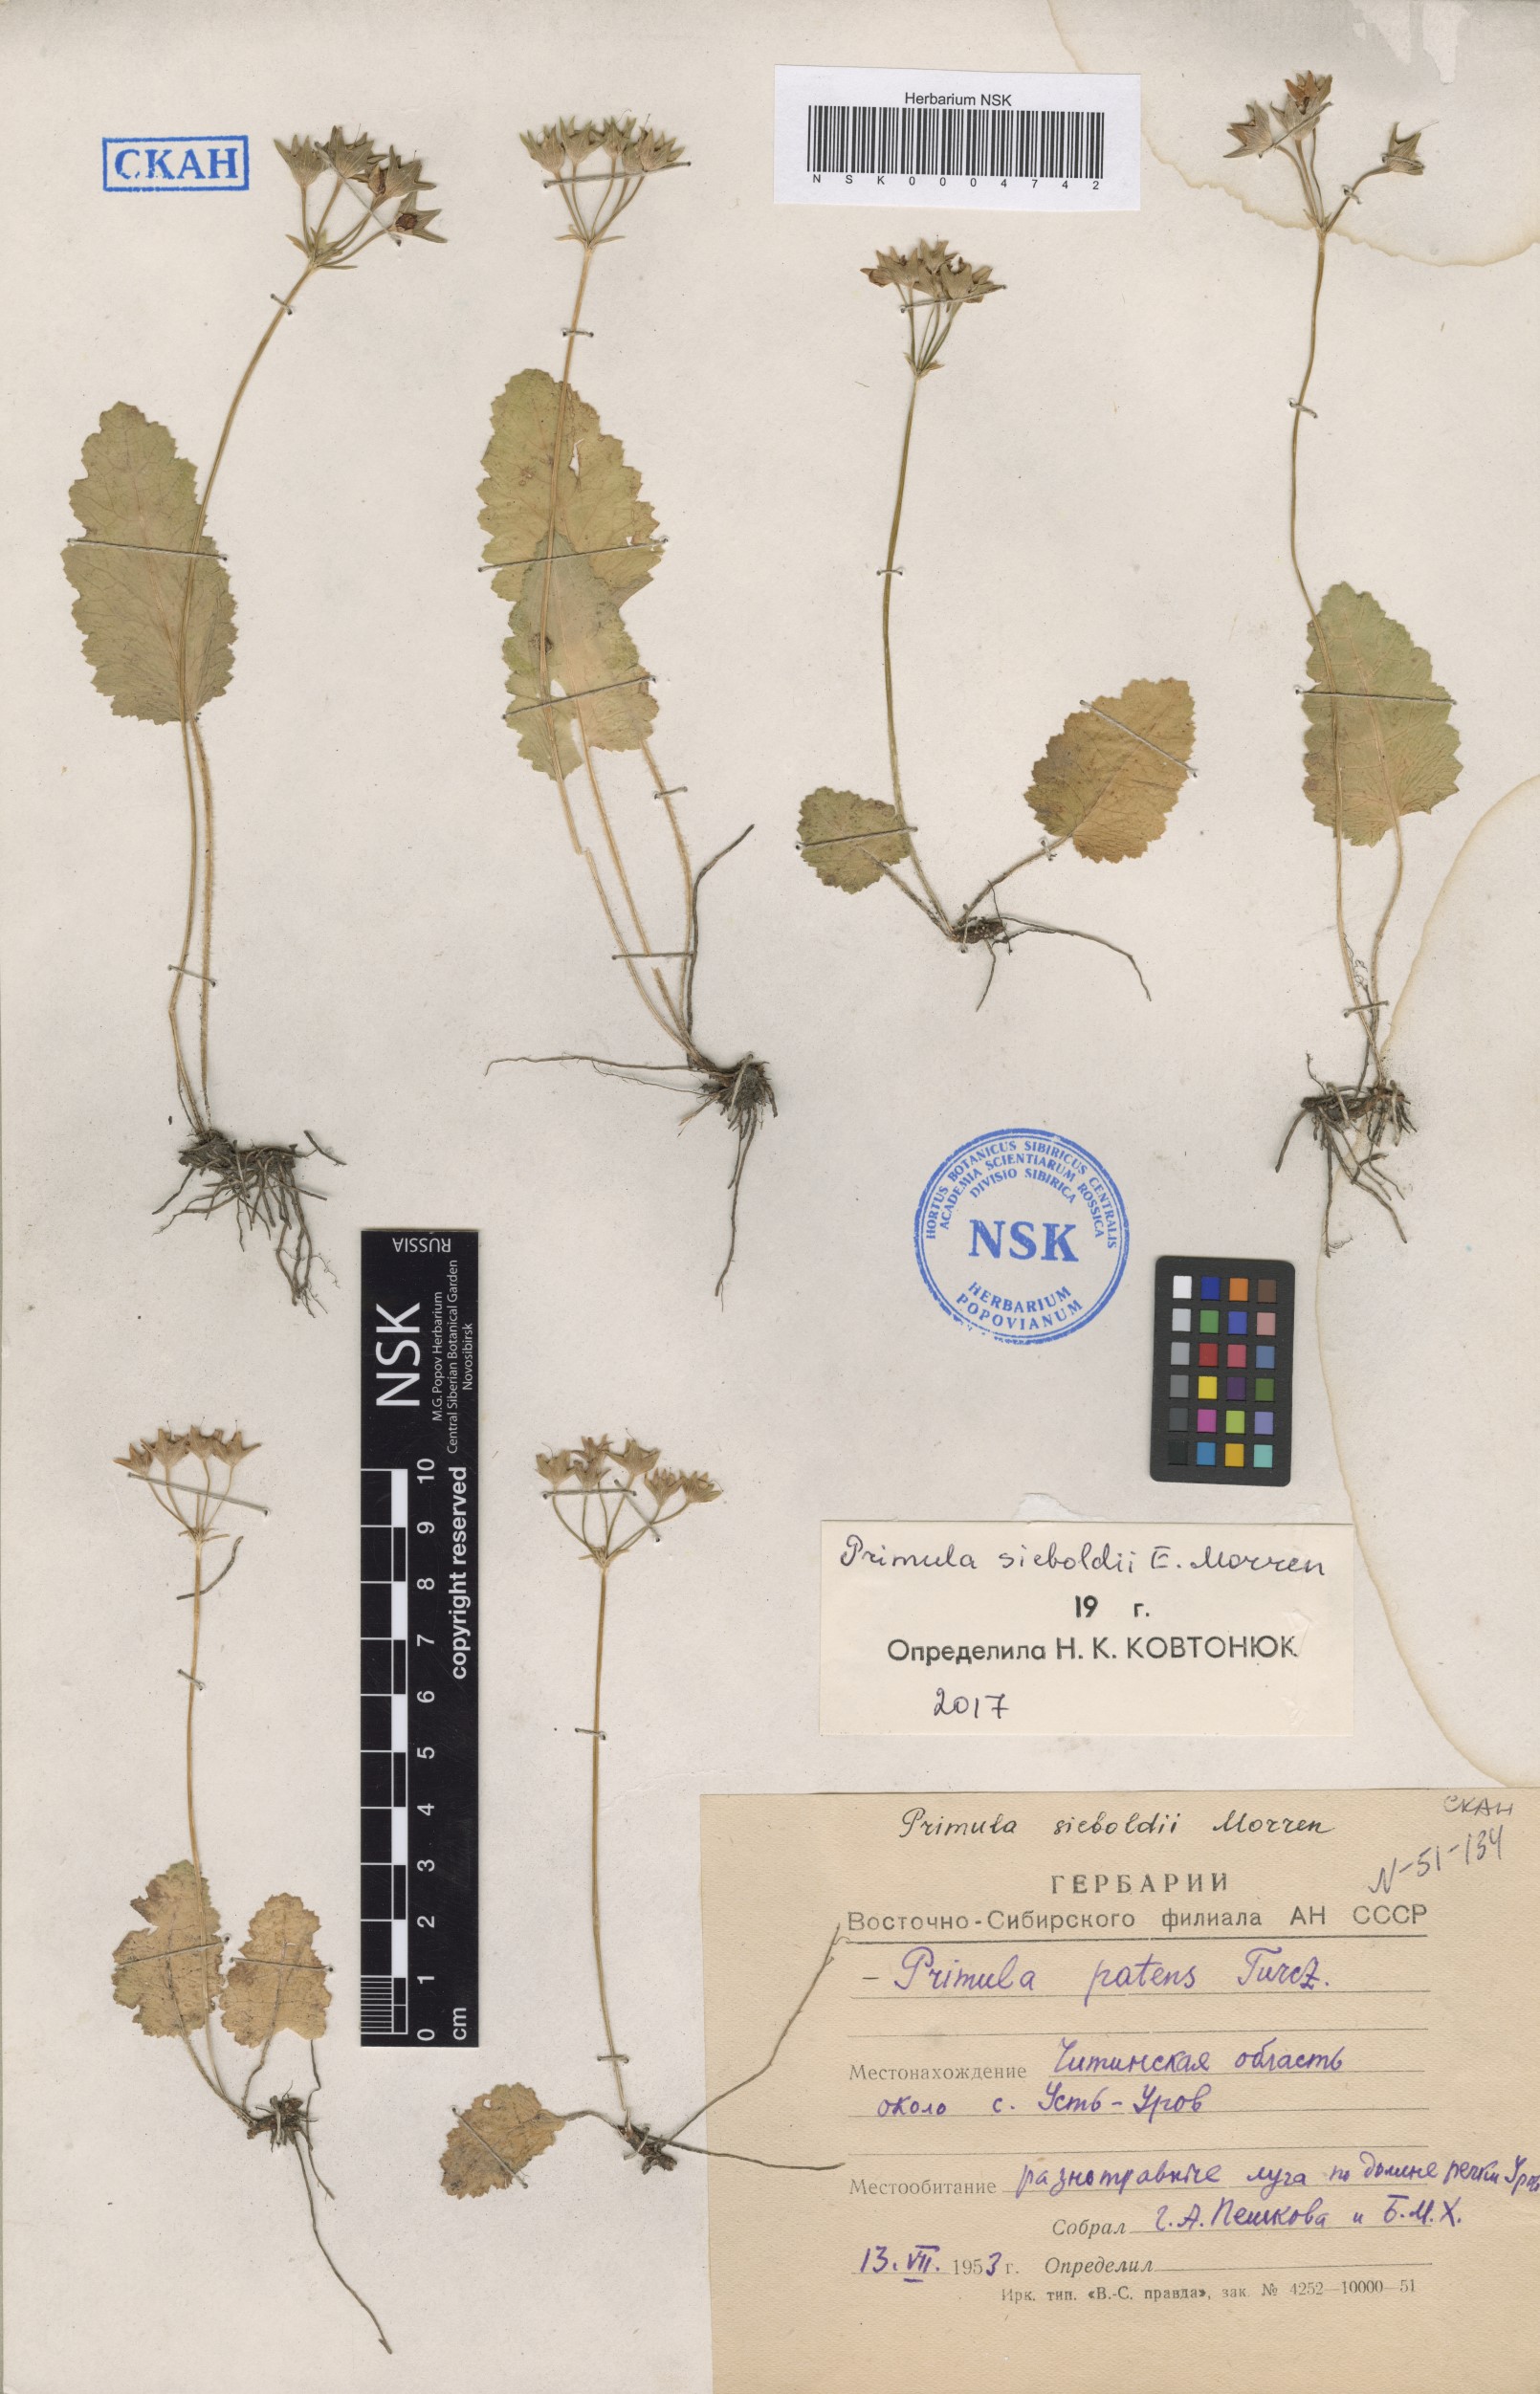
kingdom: Plantae
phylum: Tracheophyta
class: Magnoliopsida
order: Ericales
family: Primulaceae
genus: Primula
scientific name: Primula sieboldii
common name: Japanese primrose
